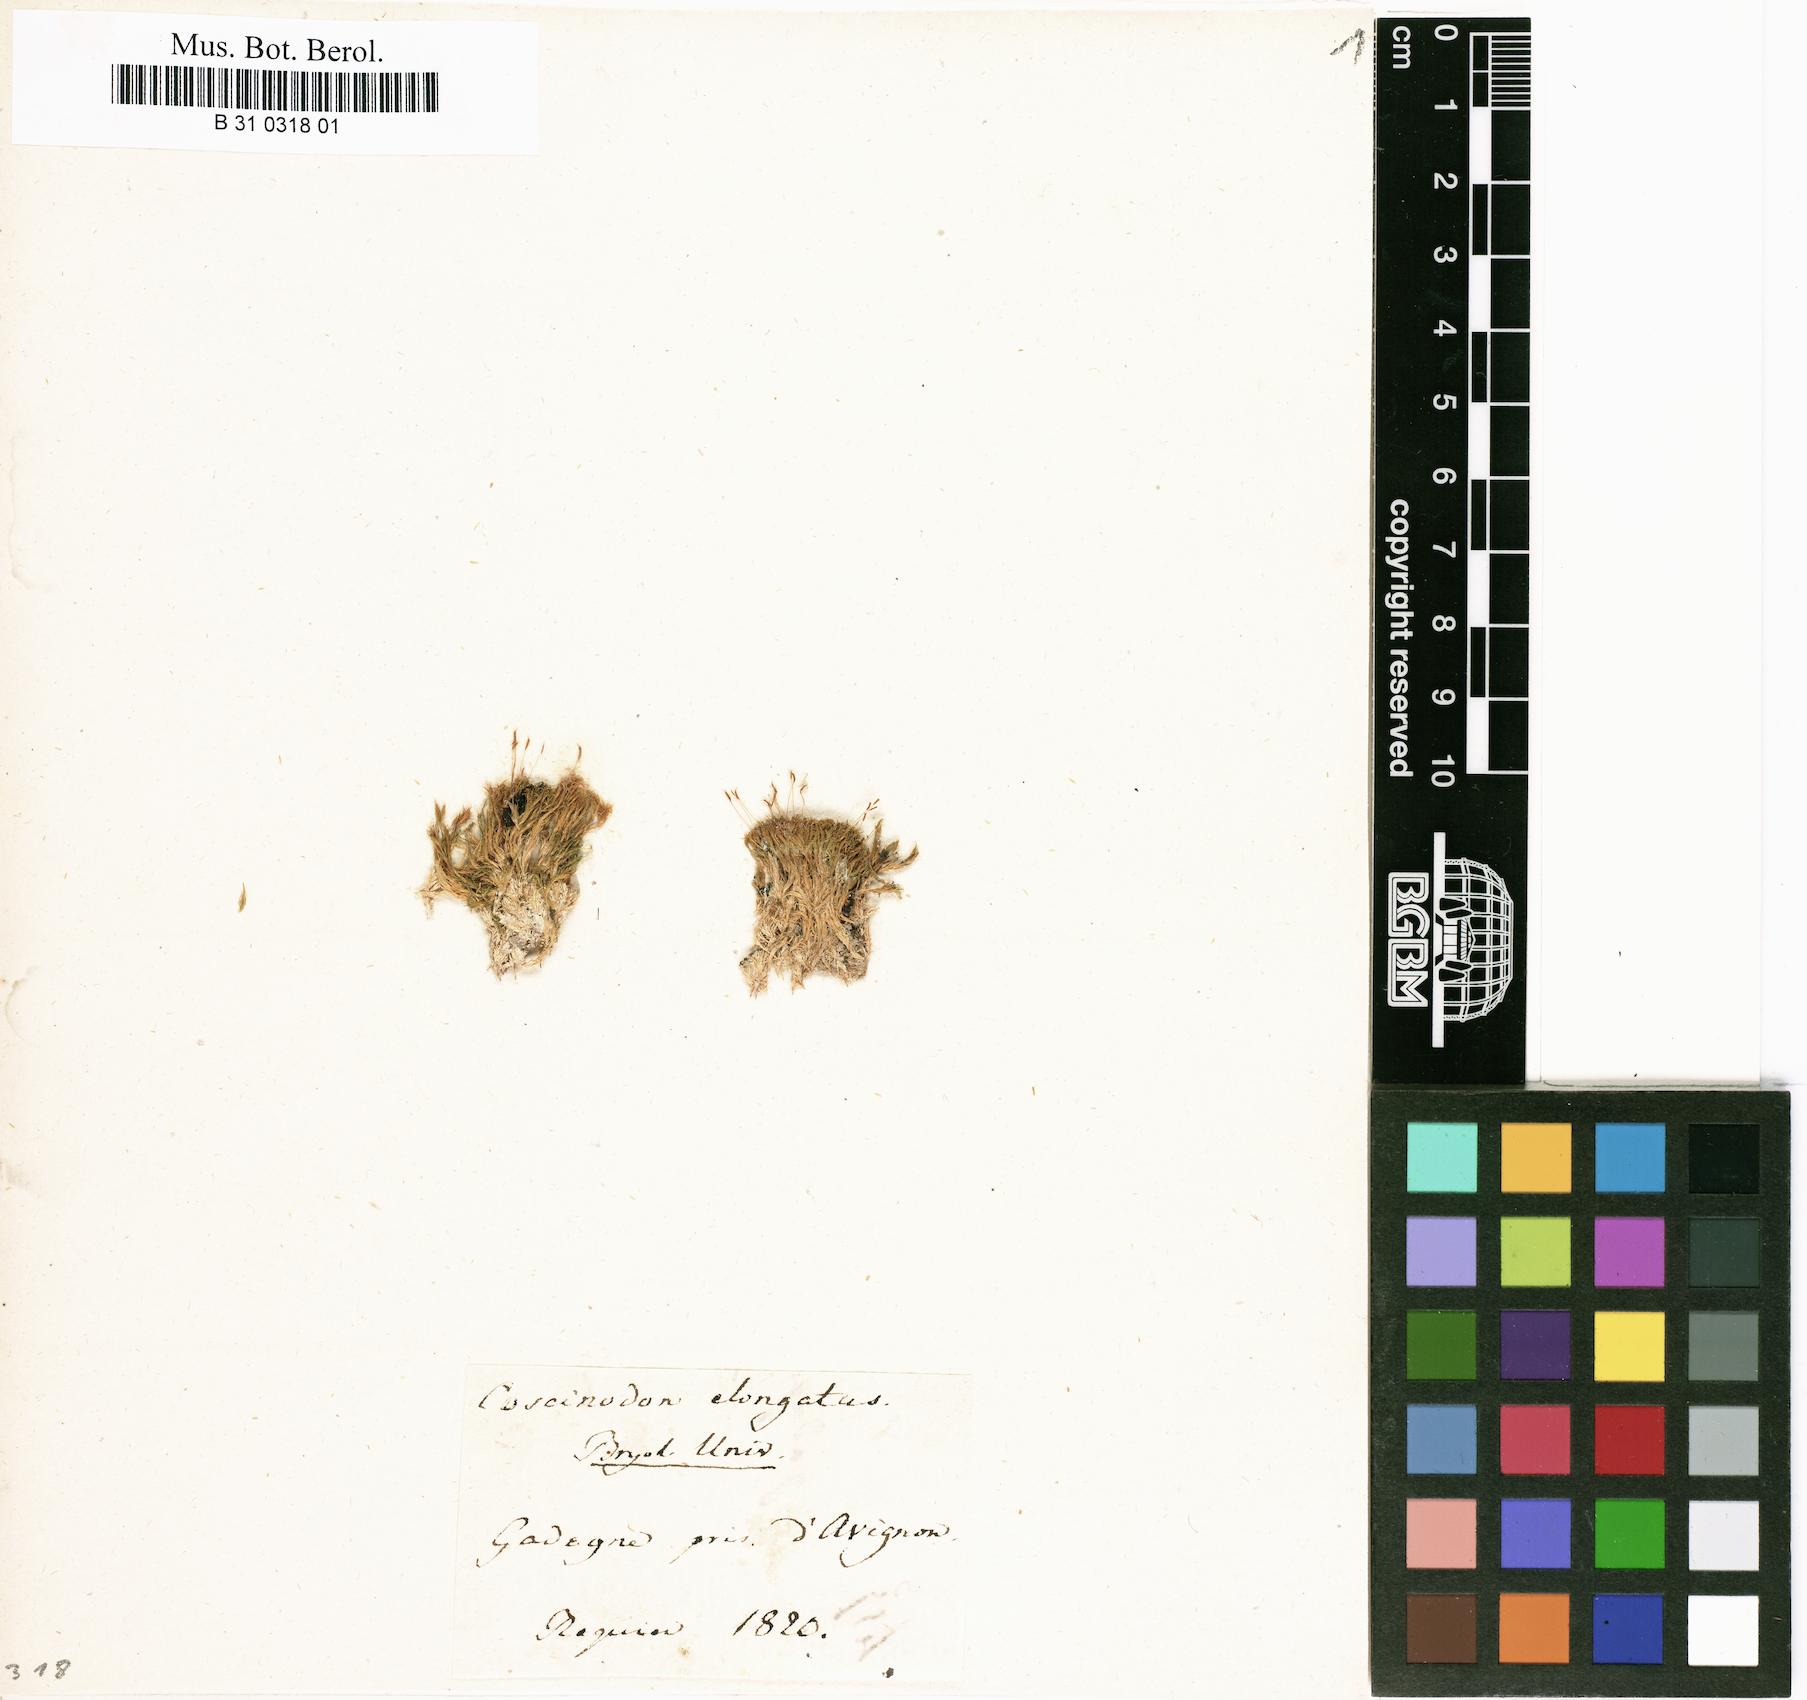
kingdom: Plantae
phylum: Bryophyta
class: Bryopsida
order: Pottiales
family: Pottiaceae
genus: Eucladium
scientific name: Eucladium verticillatum
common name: Whorled tufa-moss
